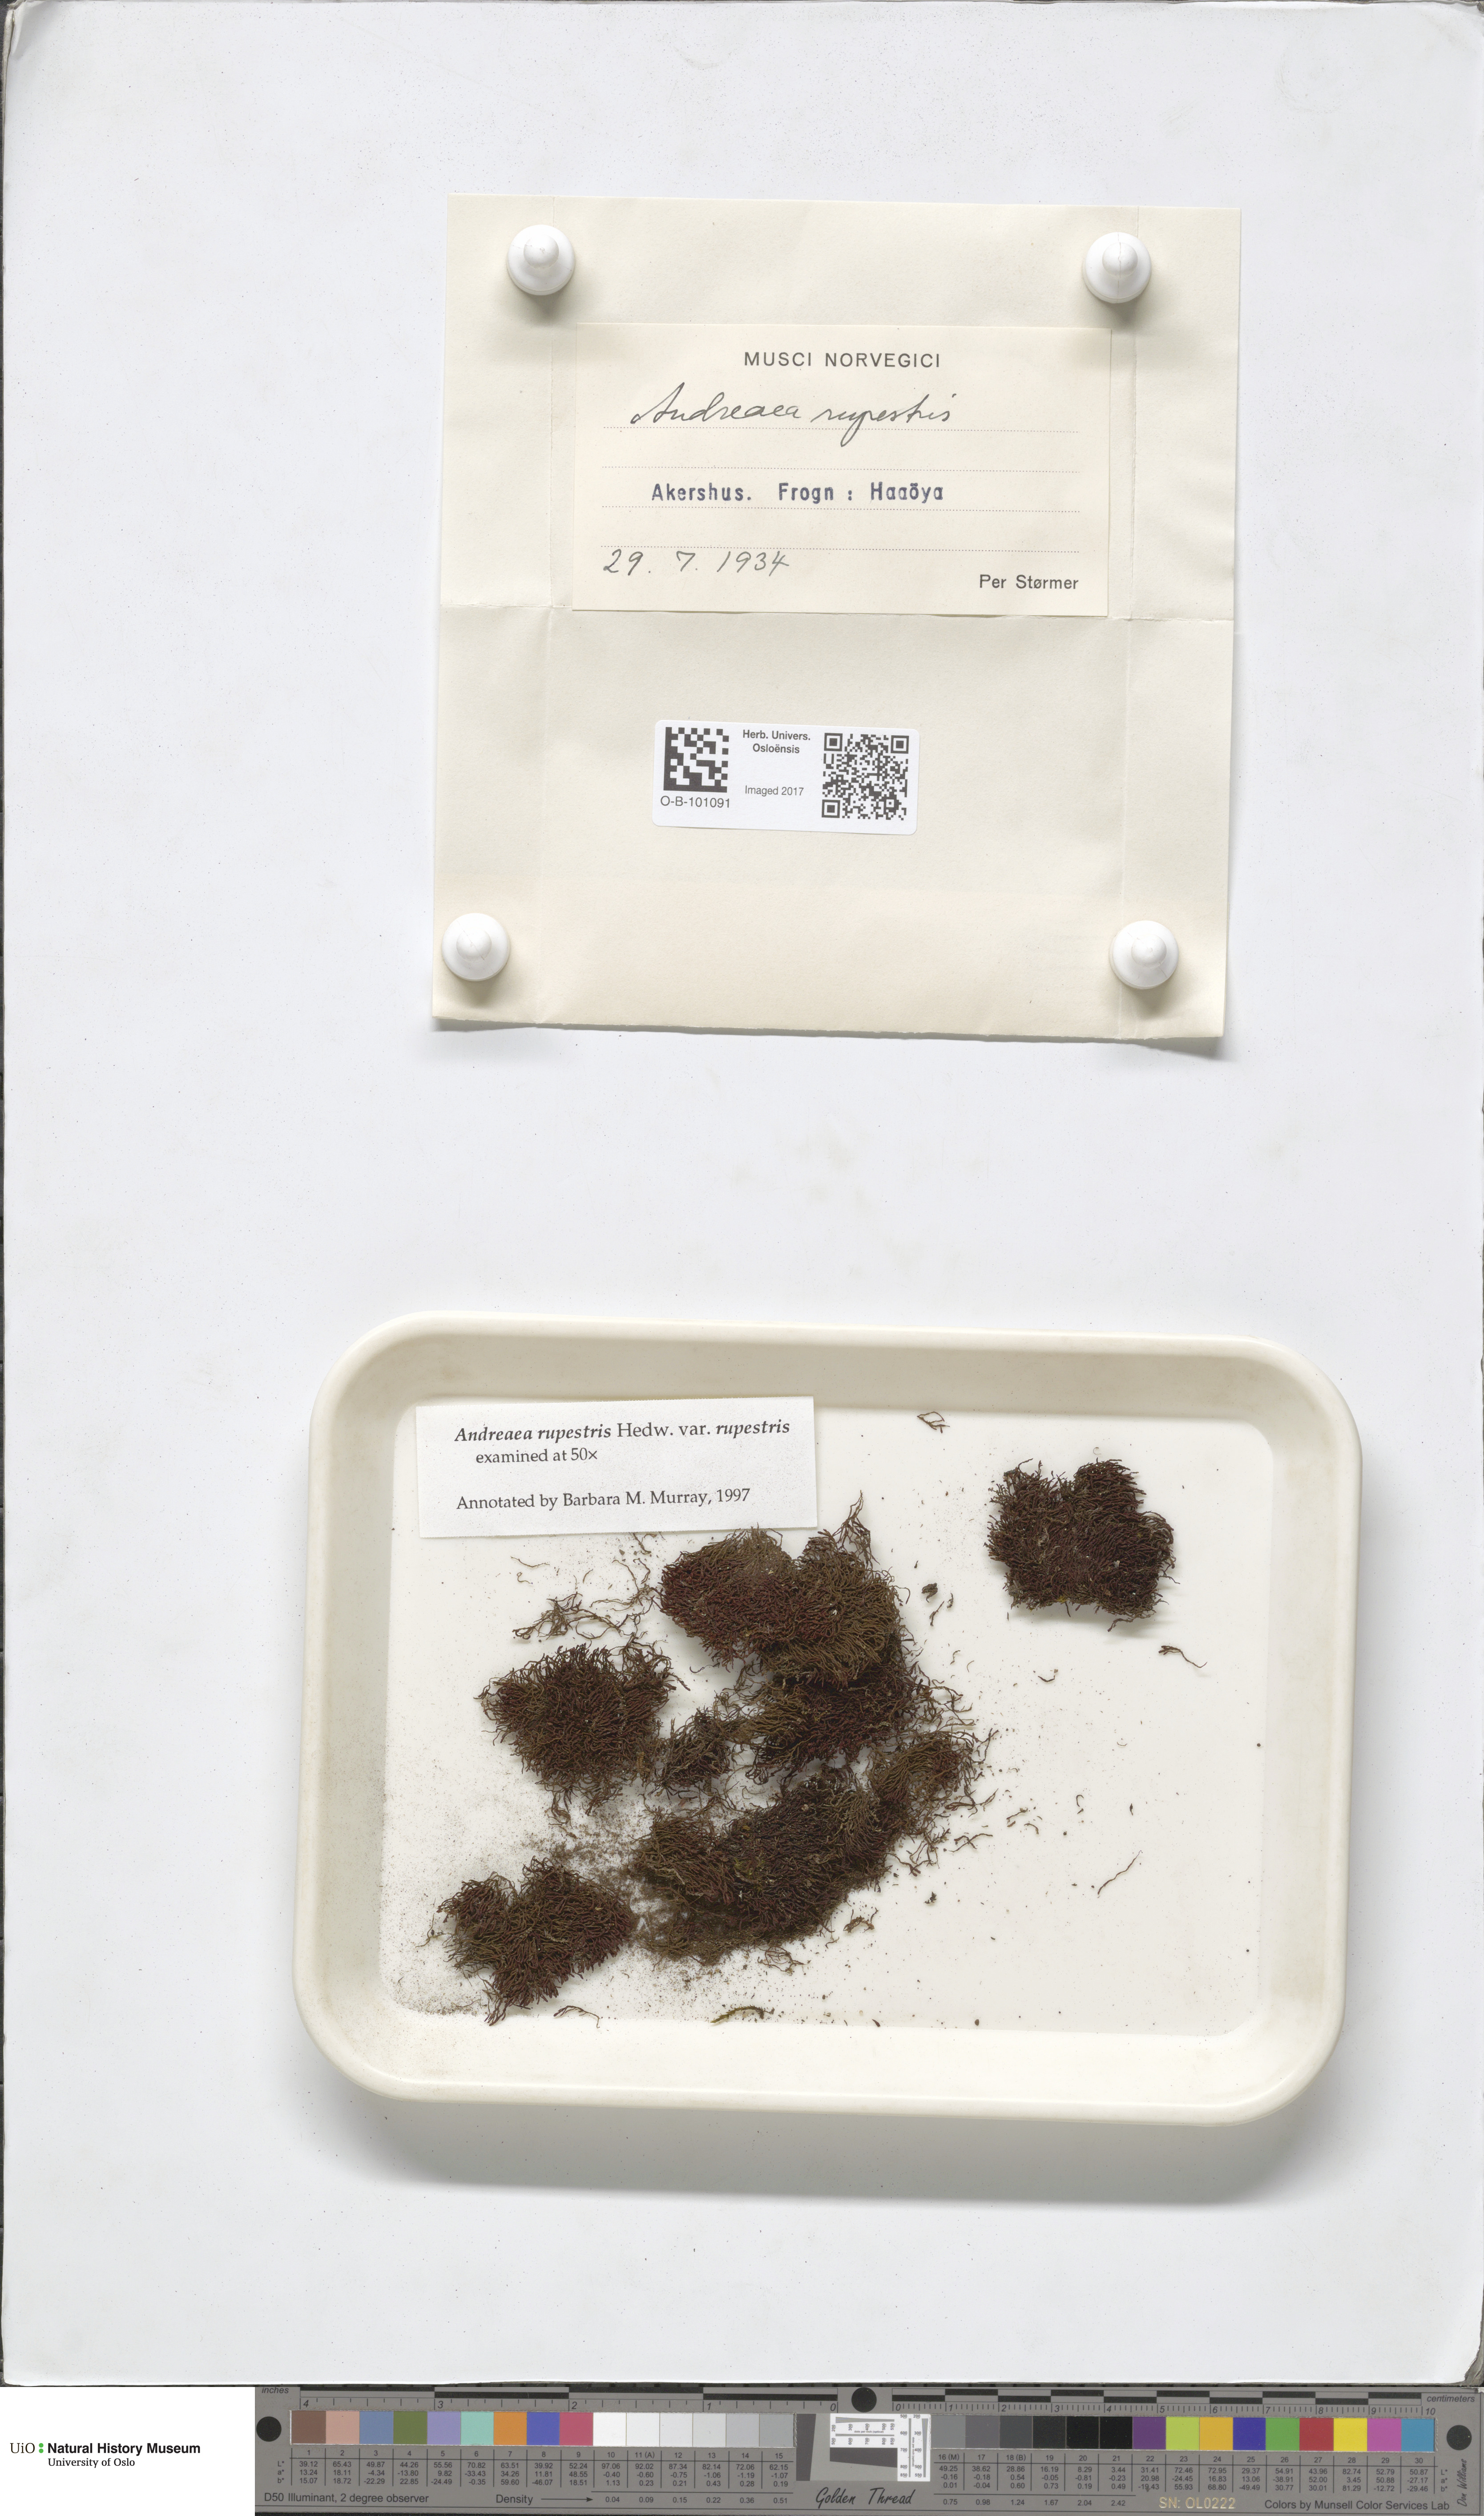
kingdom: Plantae
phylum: Bryophyta
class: Andreaeopsida
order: Andreaeales
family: Andreaeaceae
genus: Andreaea
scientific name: Andreaea rupestris
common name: Black rock moss
